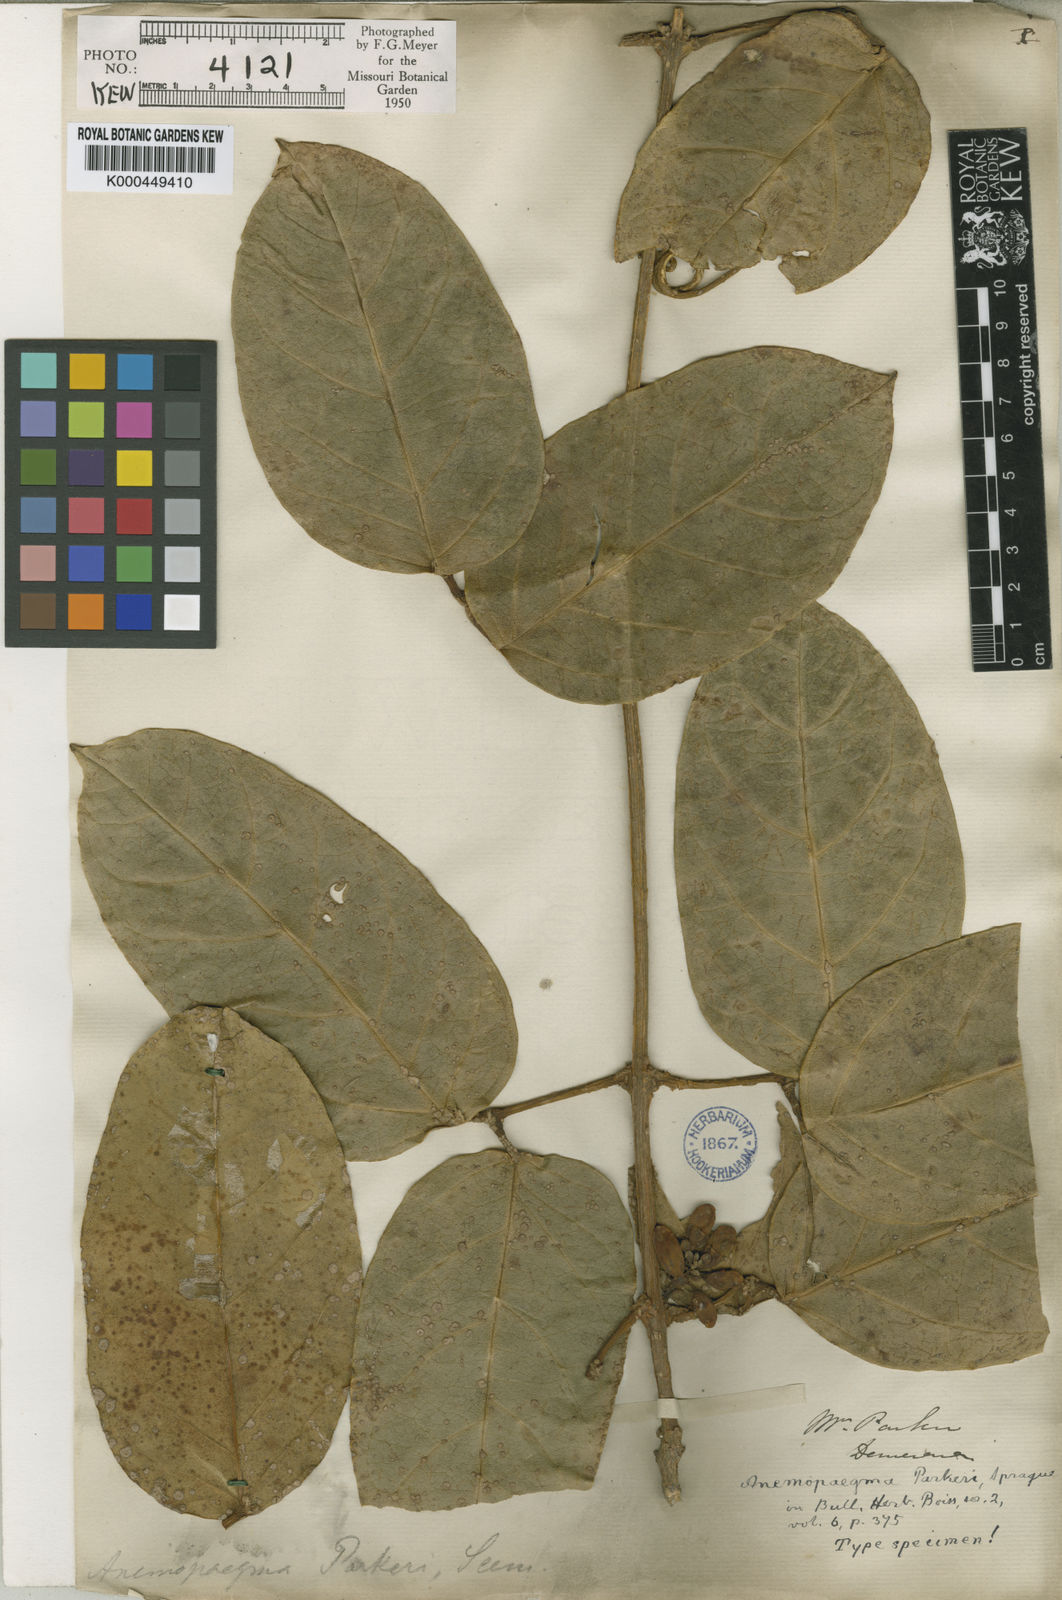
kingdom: Plantae
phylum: Tracheophyta
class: Magnoliopsida
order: Lamiales
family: Bignoniaceae
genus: Anemopaegma
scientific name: Anemopaegma parkeri
